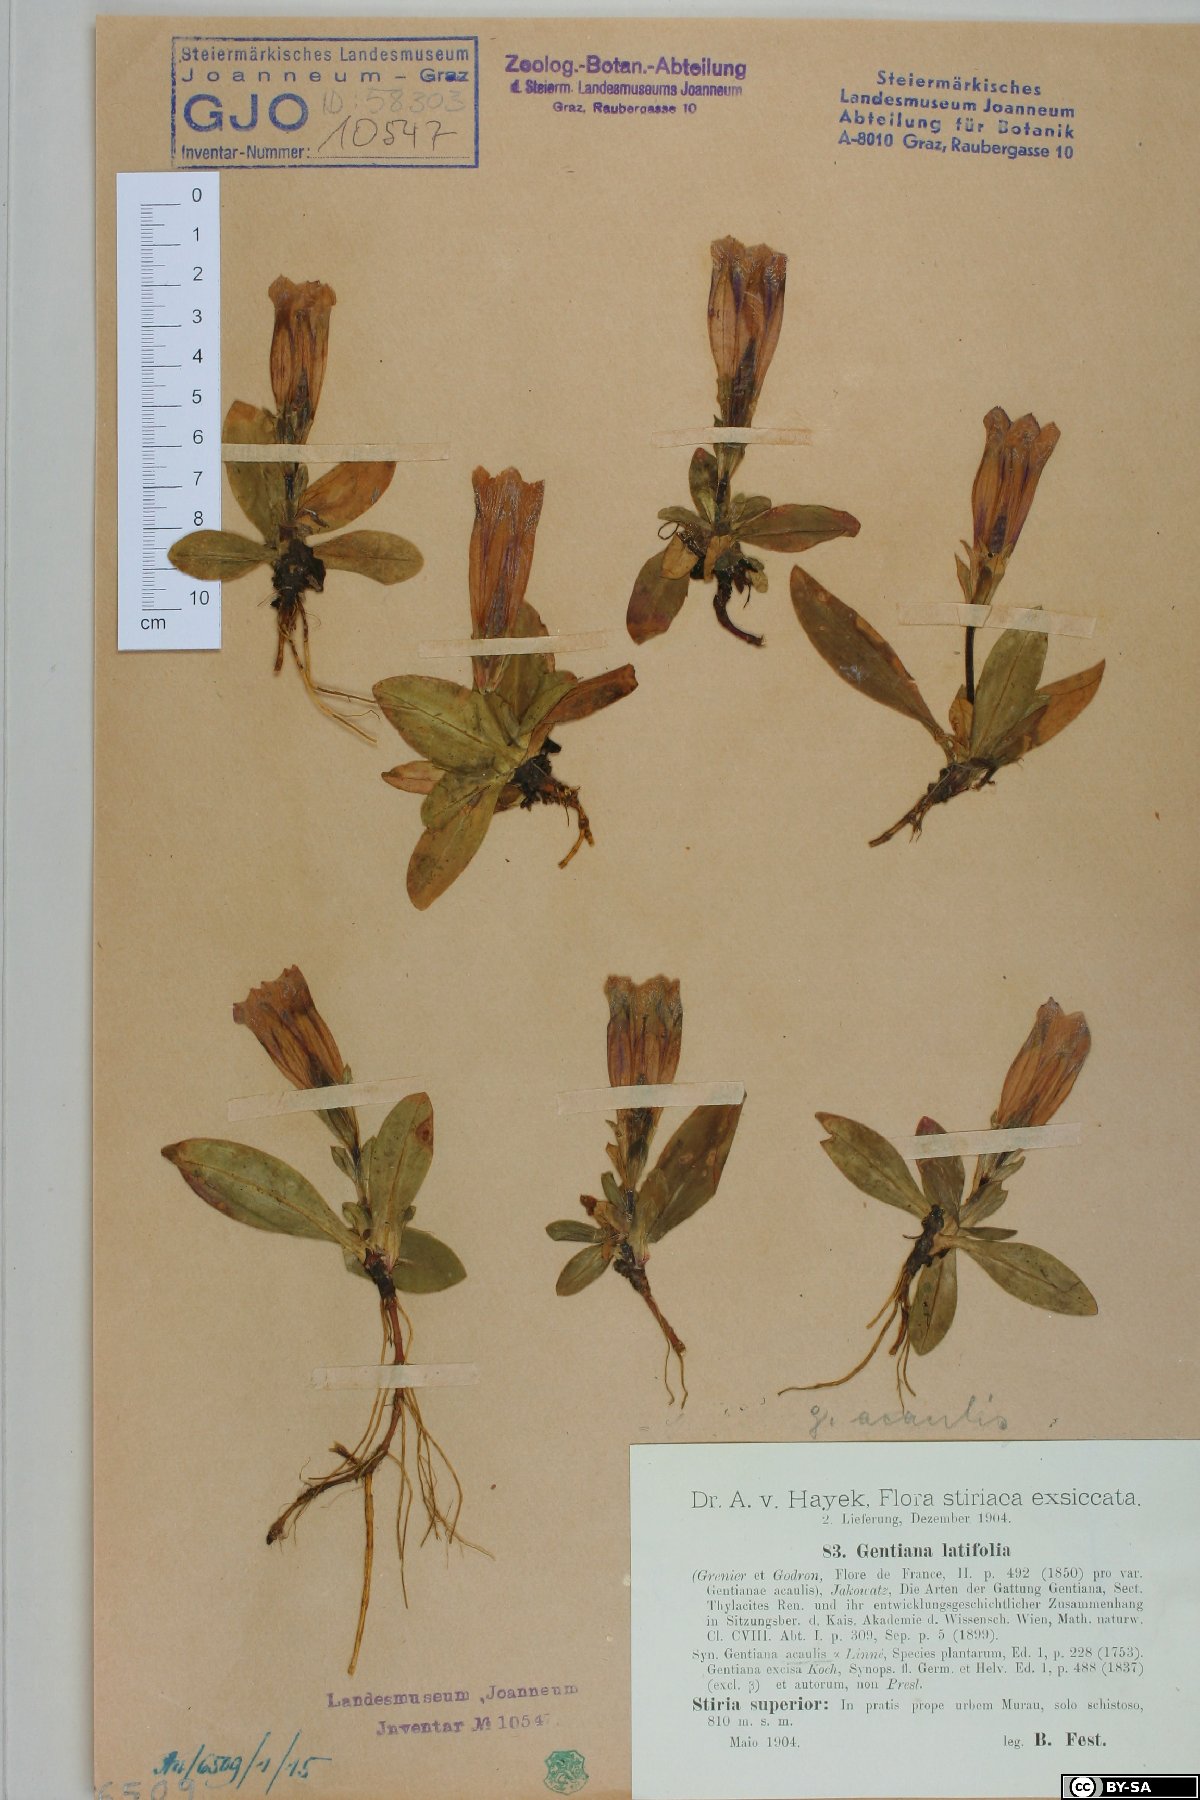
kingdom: Plantae
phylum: Tracheophyta
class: Magnoliopsida
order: Gentianales
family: Gentianaceae
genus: Gentiana
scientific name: Gentiana acaulis
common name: Trumpet gentian
